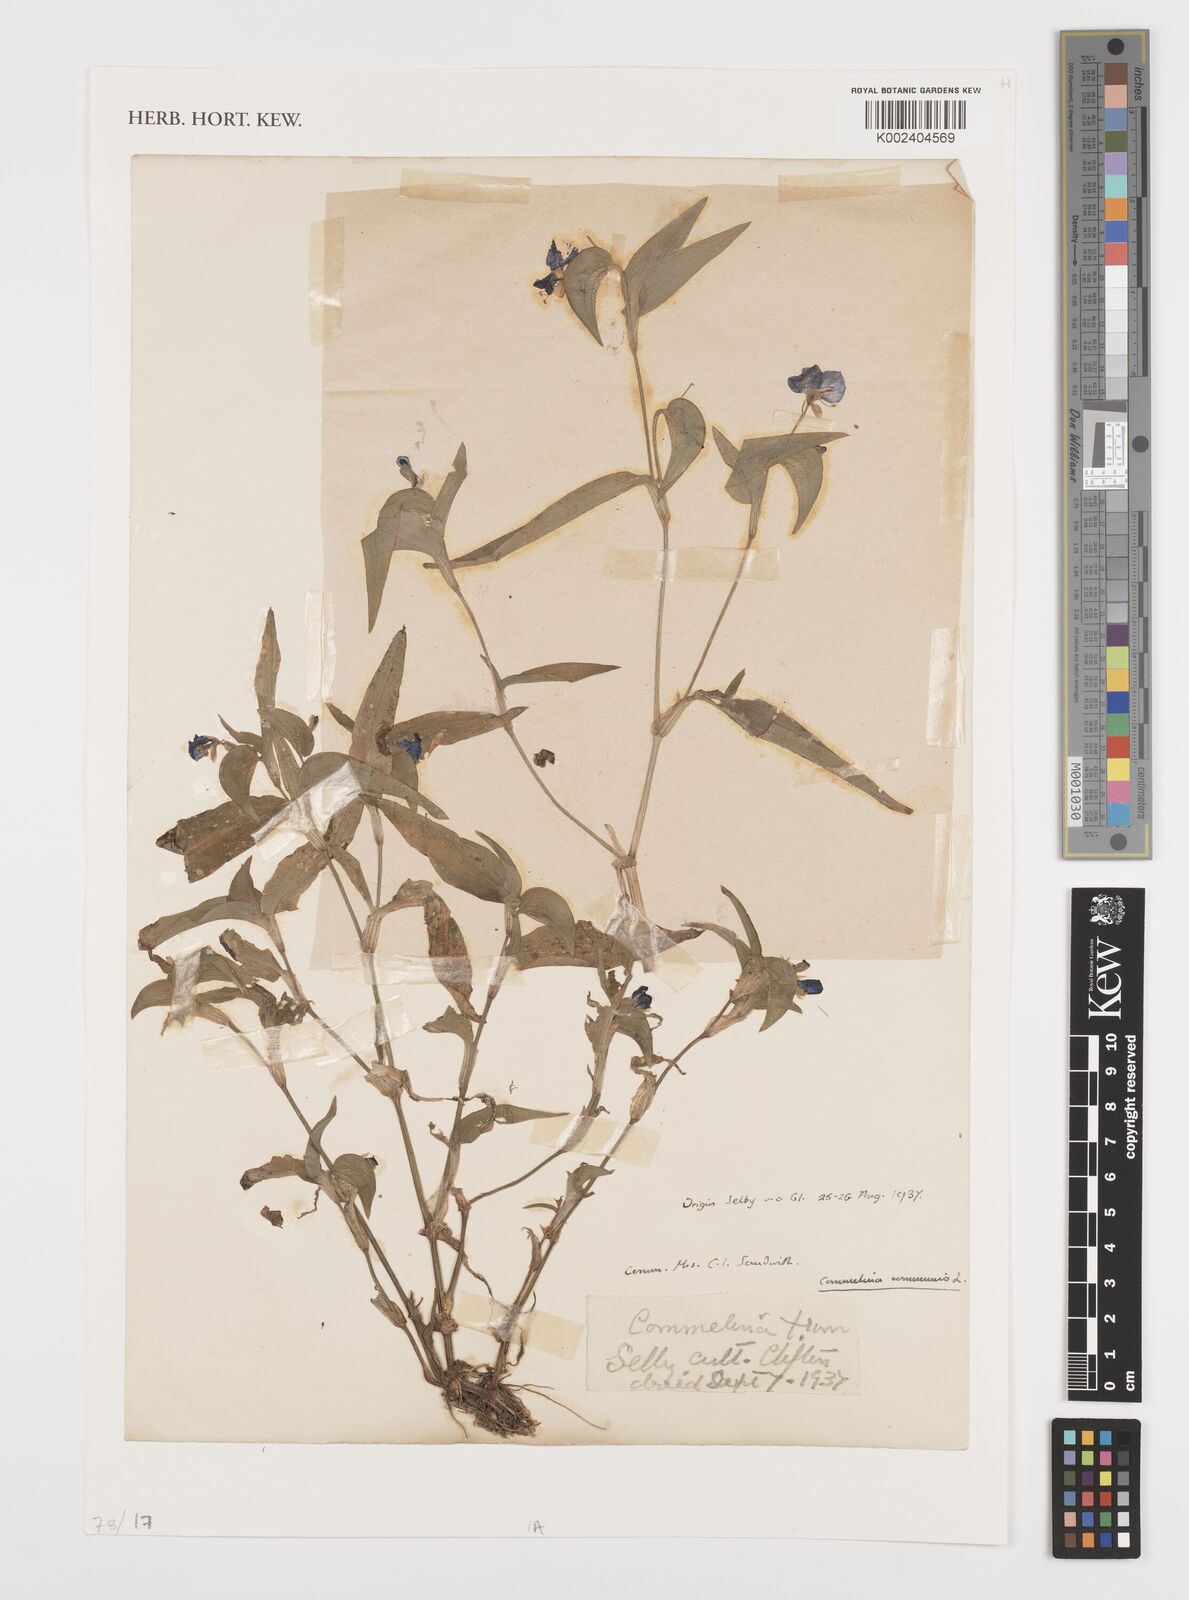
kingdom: Plantae
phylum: Tracheophyta
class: Liliopsida
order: Commelinales
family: Commelinaceae
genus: Commelina
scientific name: Commelina communis
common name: Asiatic dayflower
